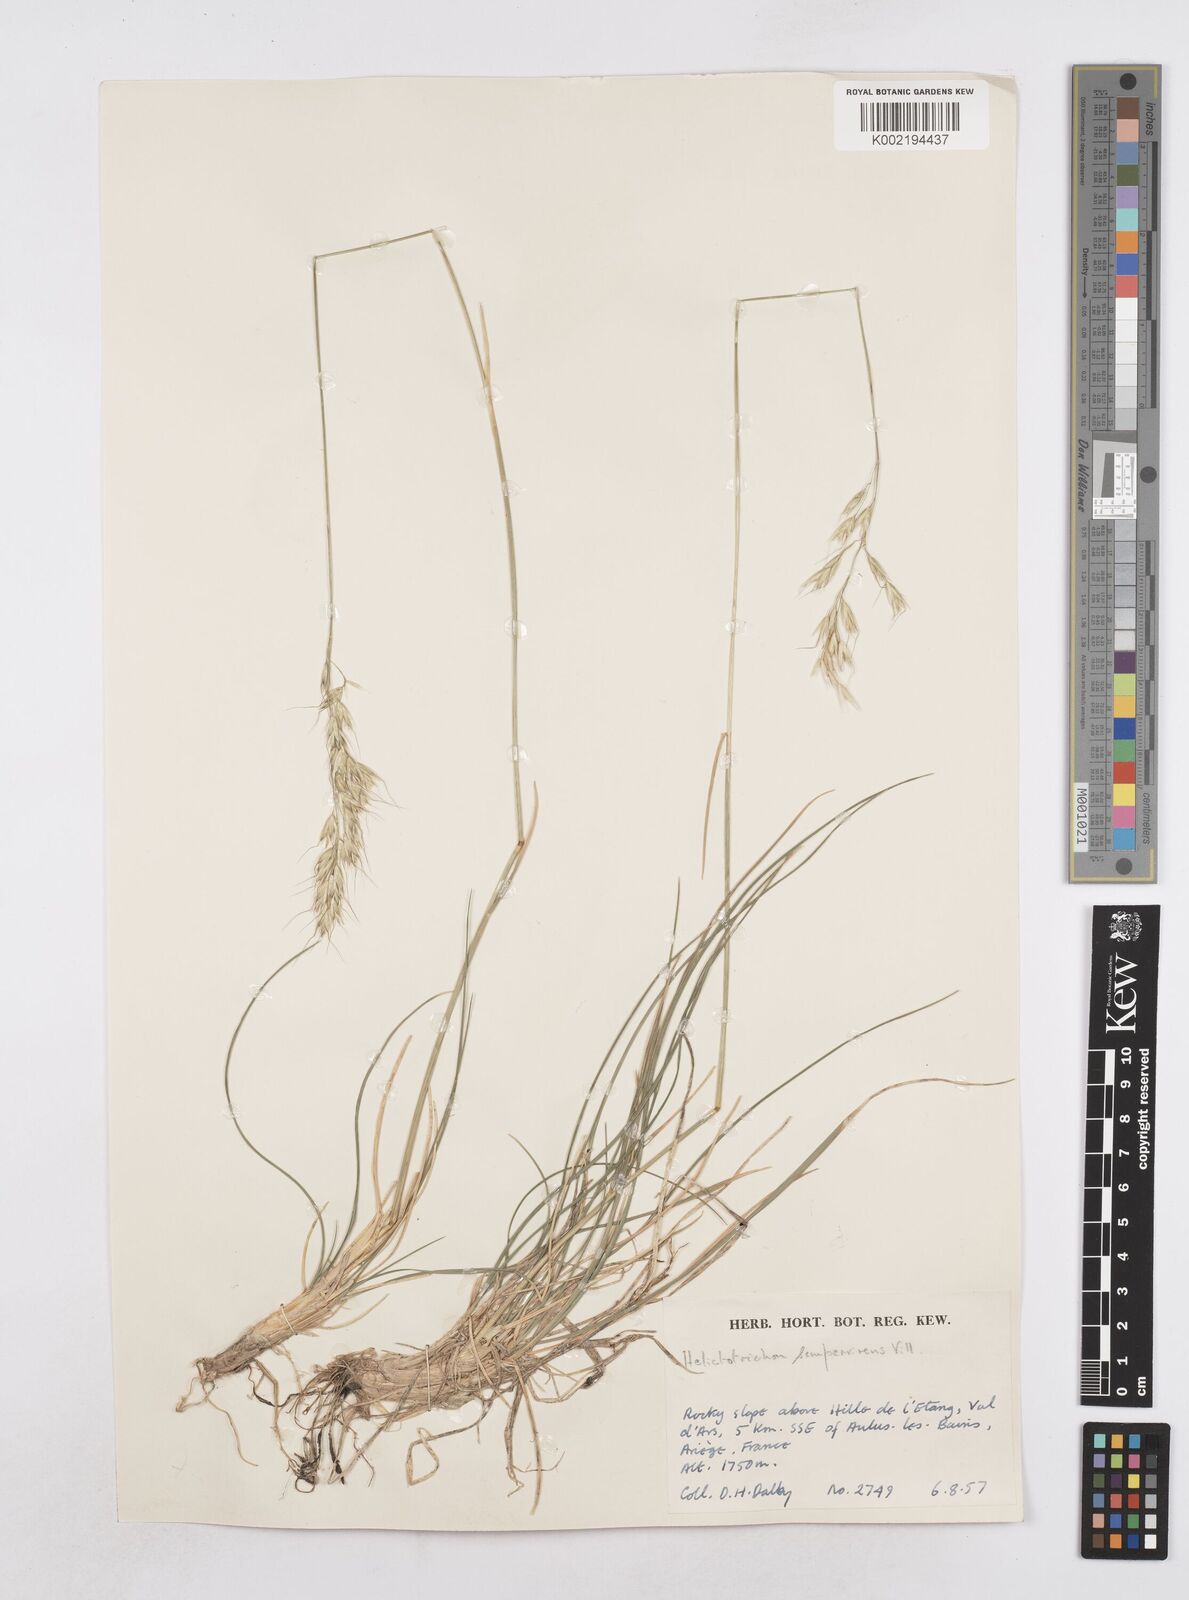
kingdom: Plantae
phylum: Tracheophyta
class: Liliopsida
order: Poales
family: Poaceae
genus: Helictotrichon
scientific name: Helictotrichon sempervirens
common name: Blue oat-grass
